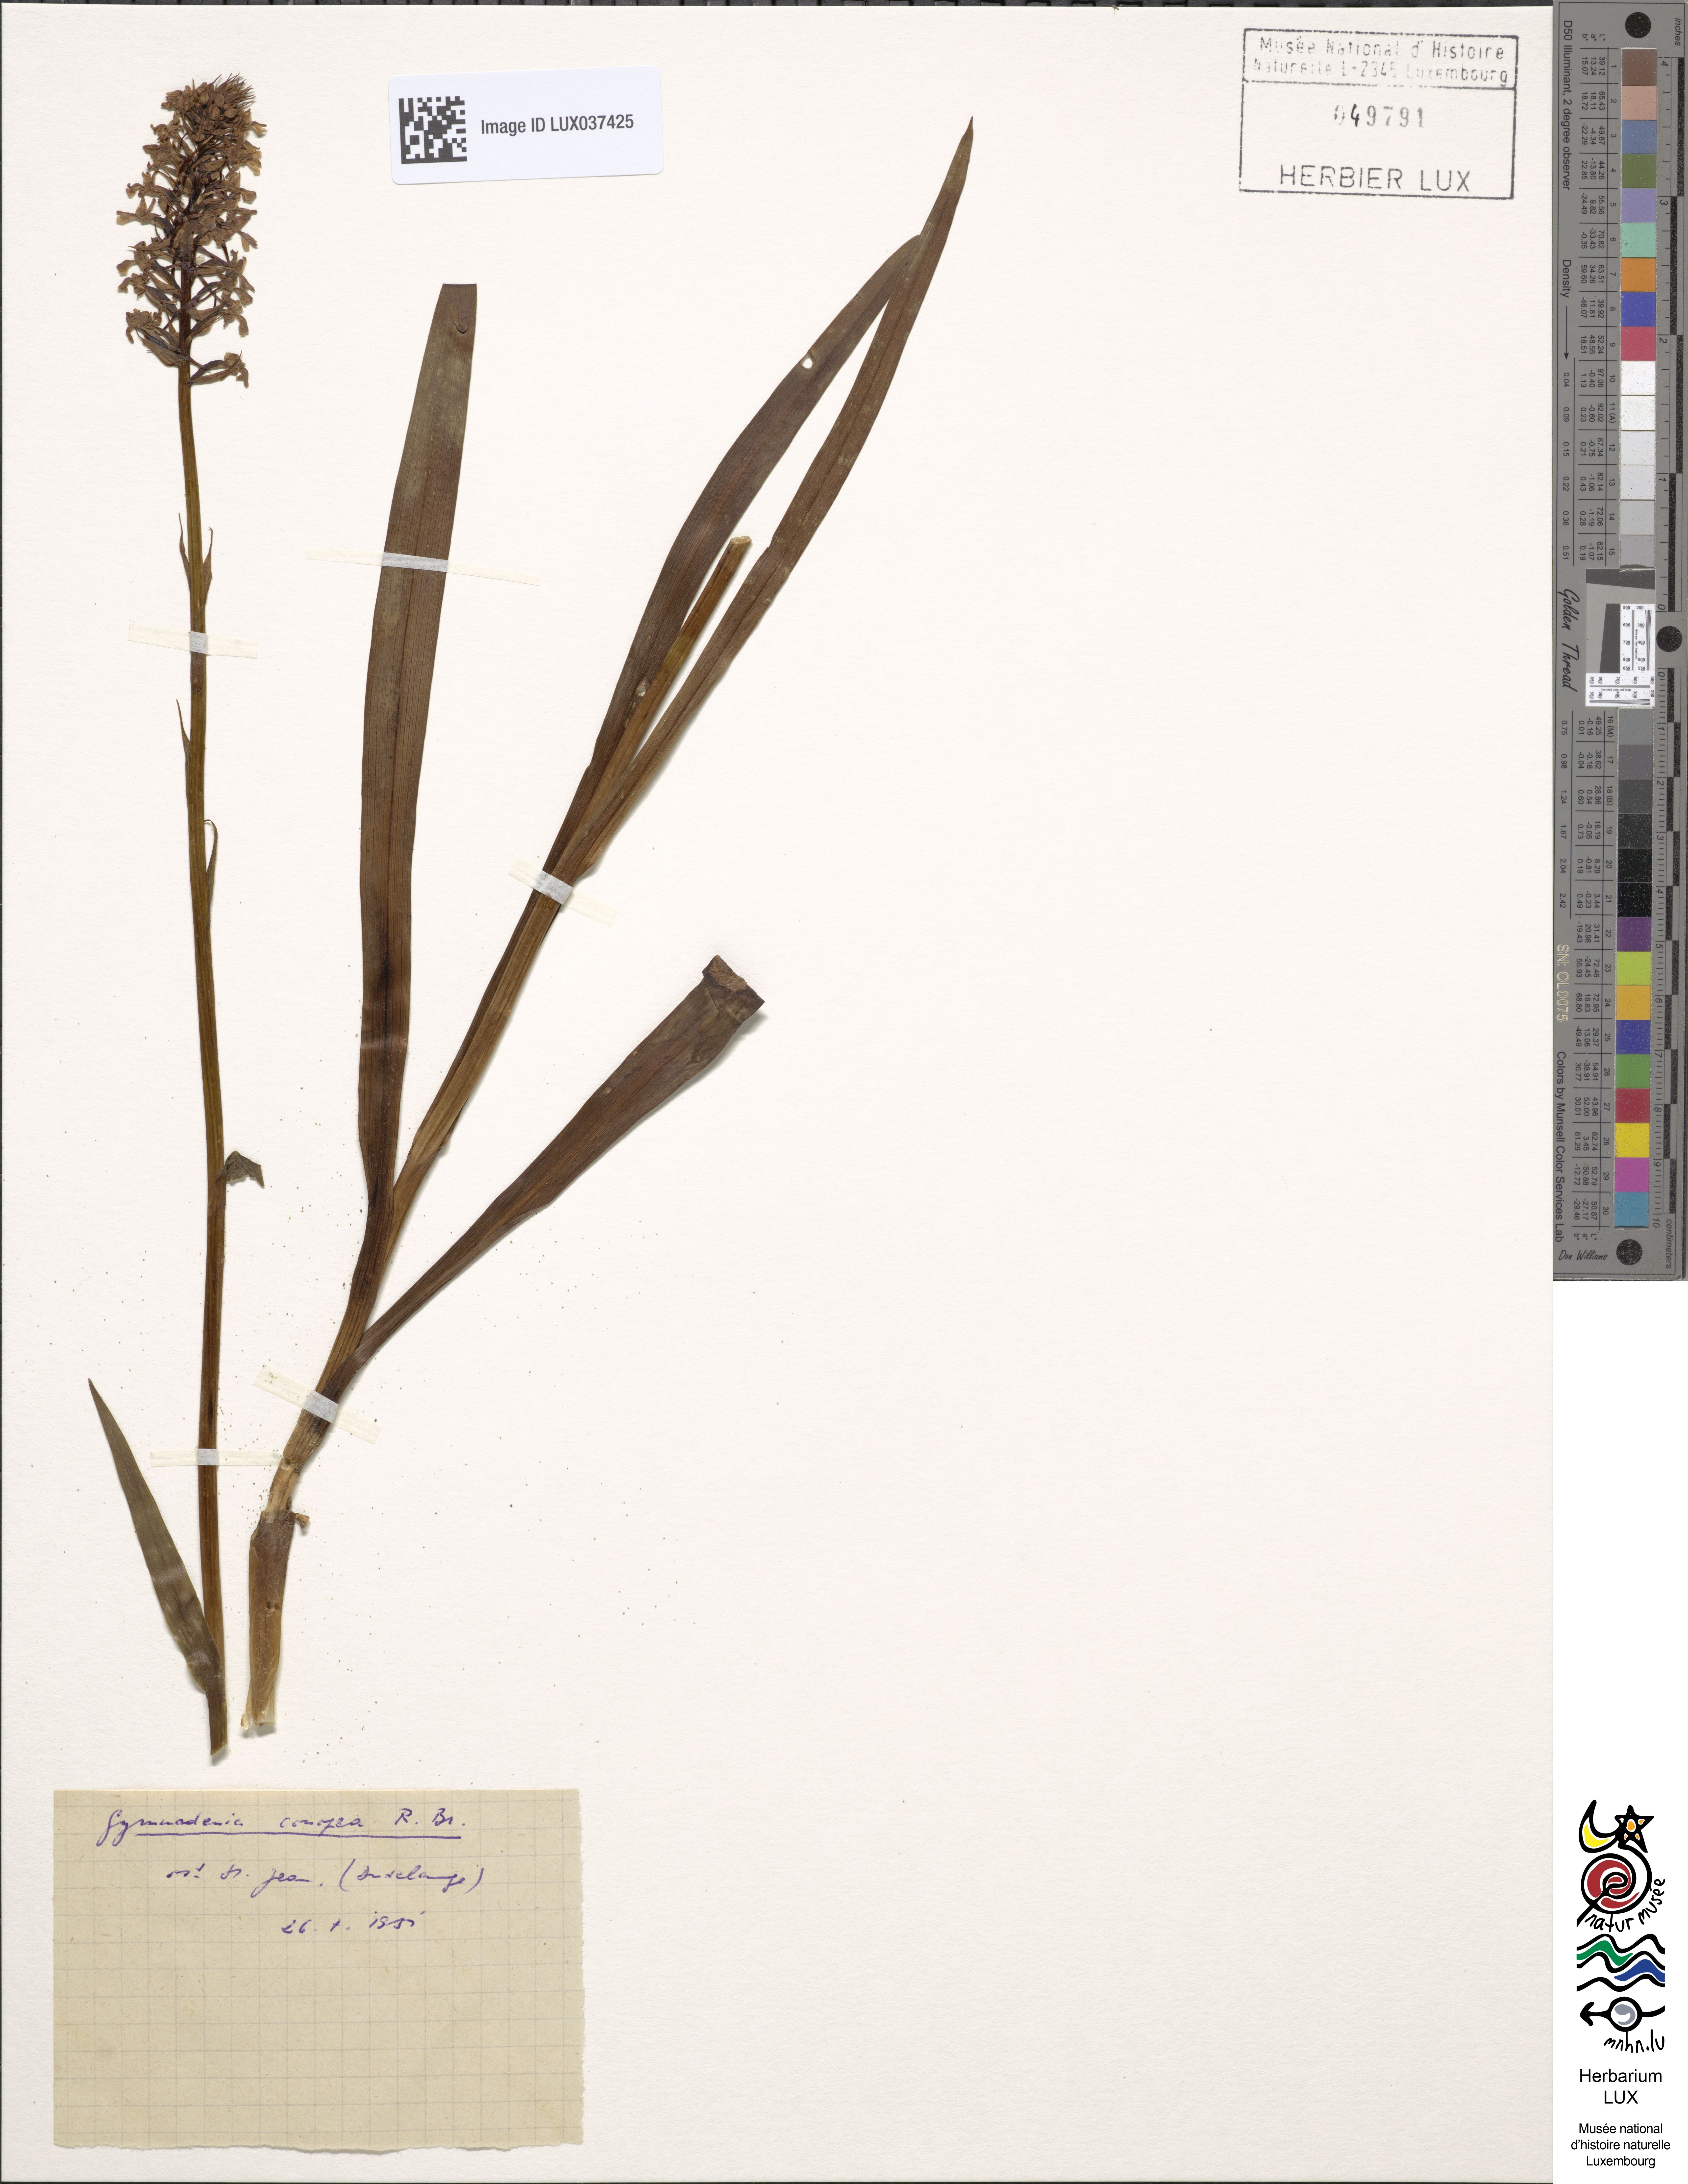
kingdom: Plantae
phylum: Tracheophyta
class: Liliopsida
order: Asparagales
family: Orchidaceae
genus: Gymnadenia
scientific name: Gymnadenia conopsea
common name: Fragrant orchid
